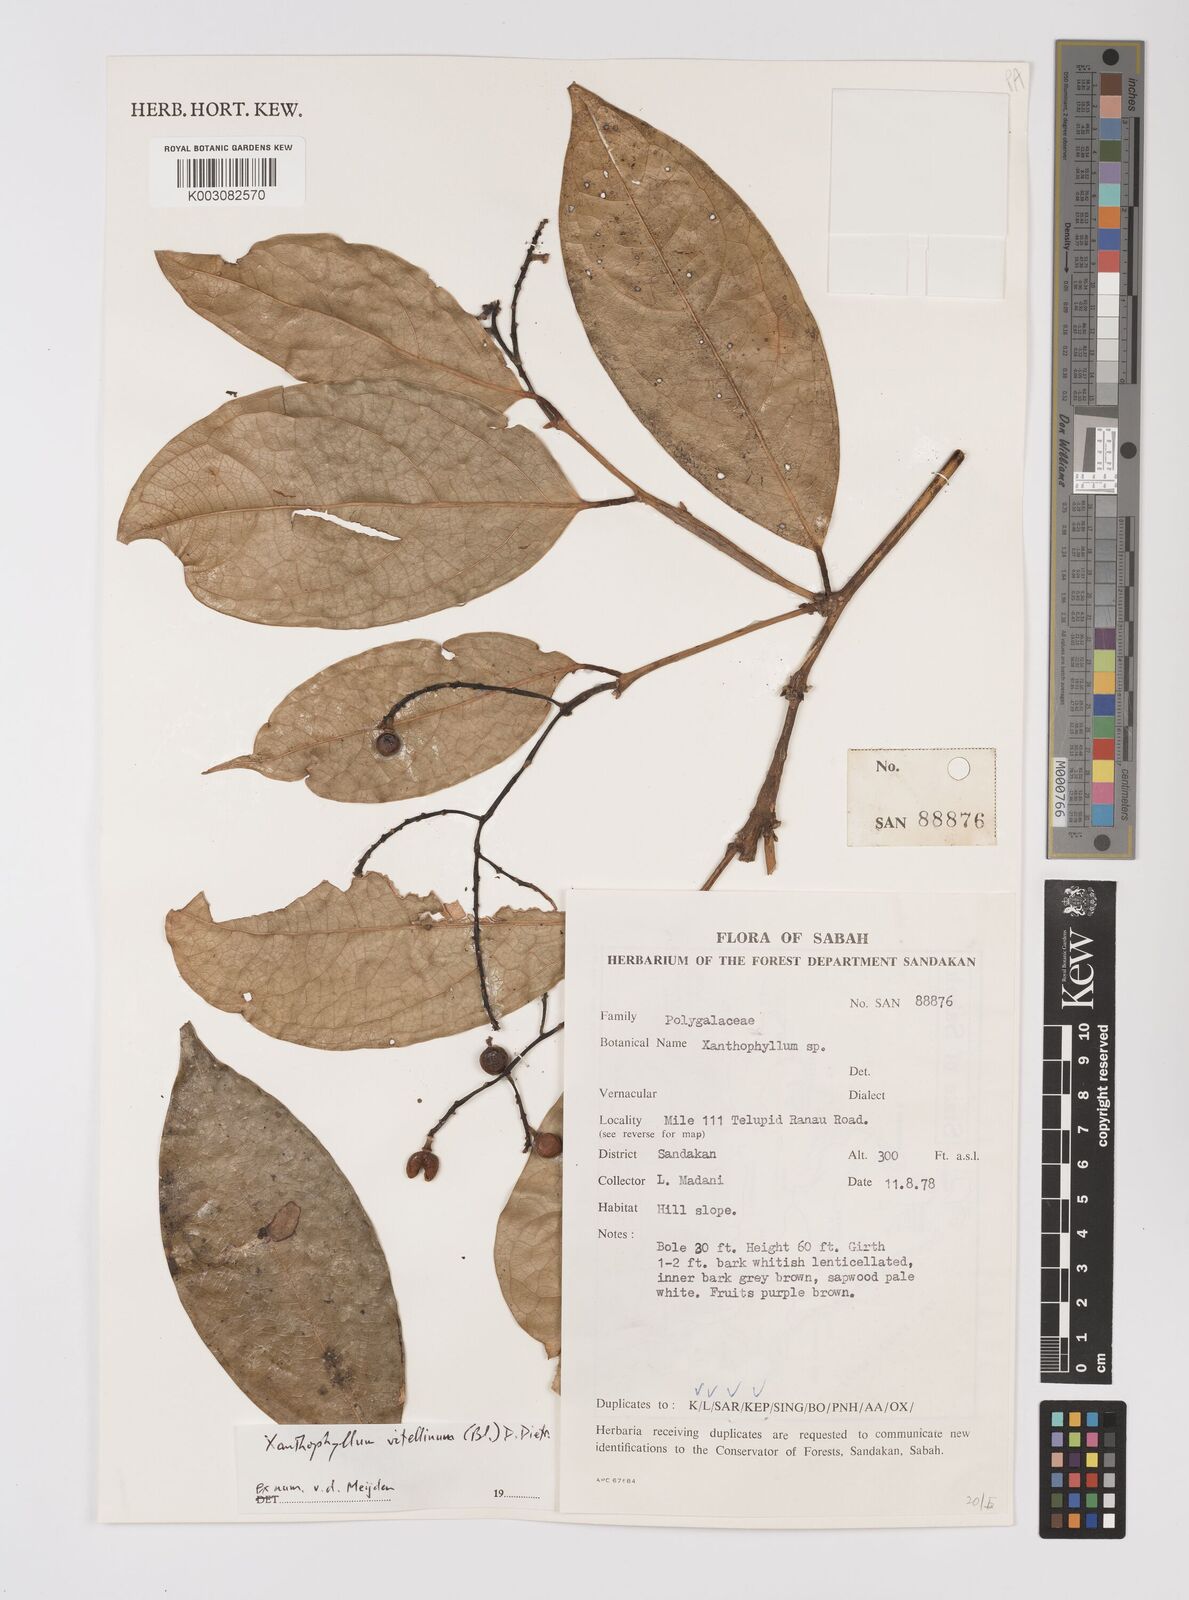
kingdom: Plantae
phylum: Tracheophyta
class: Magnoliopsida
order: Fabales
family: Polygalaceae
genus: Xanthophyllum
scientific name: Xanthophyllum vitellinum
